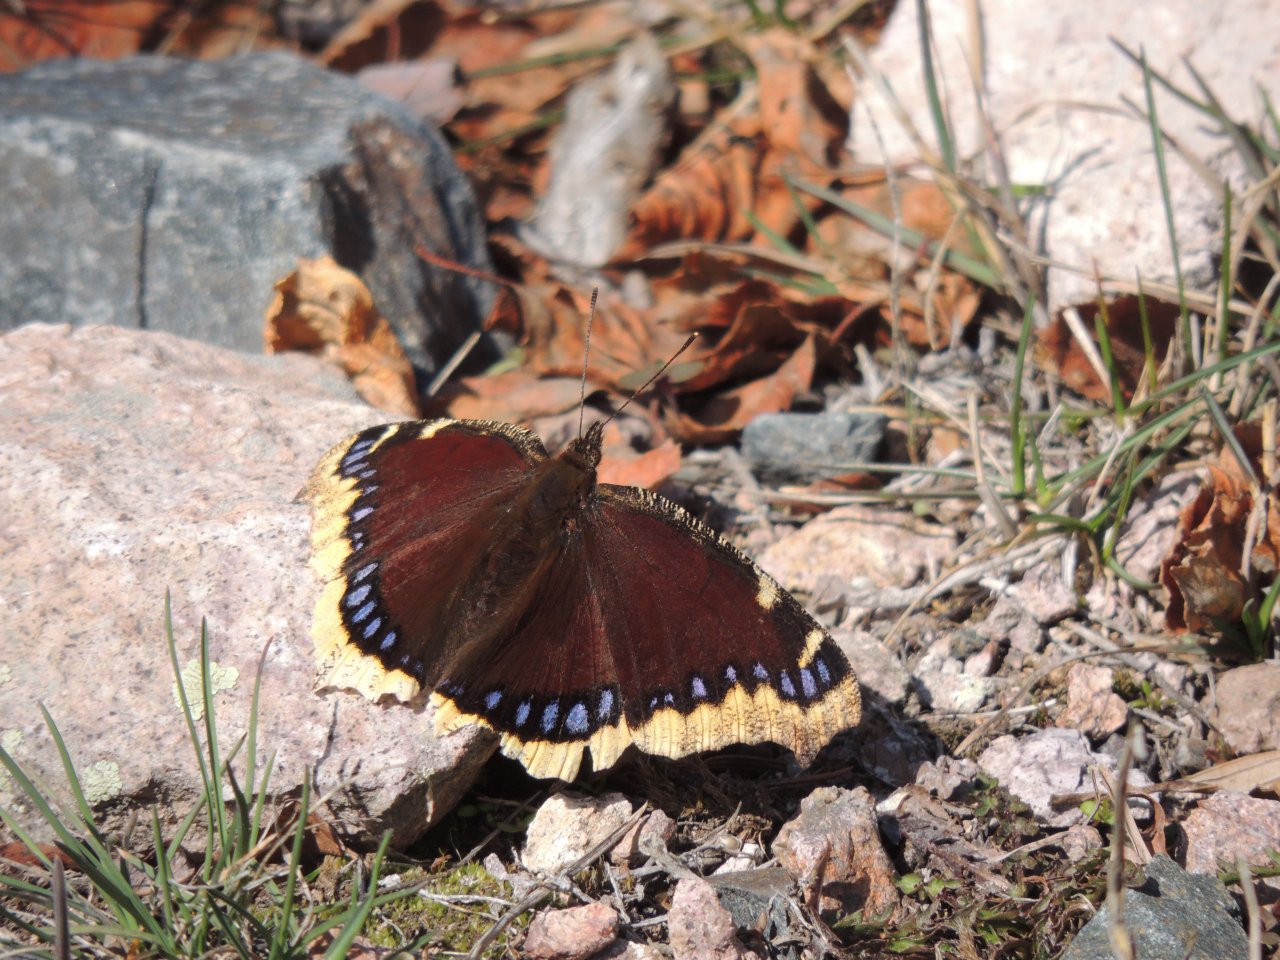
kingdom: Animalia
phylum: Arthropoda
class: Insecta
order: Lepidoptera
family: Nymphalidae
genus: Nymphalis
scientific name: Nymphalis antiopa
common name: Mourning Cloak
